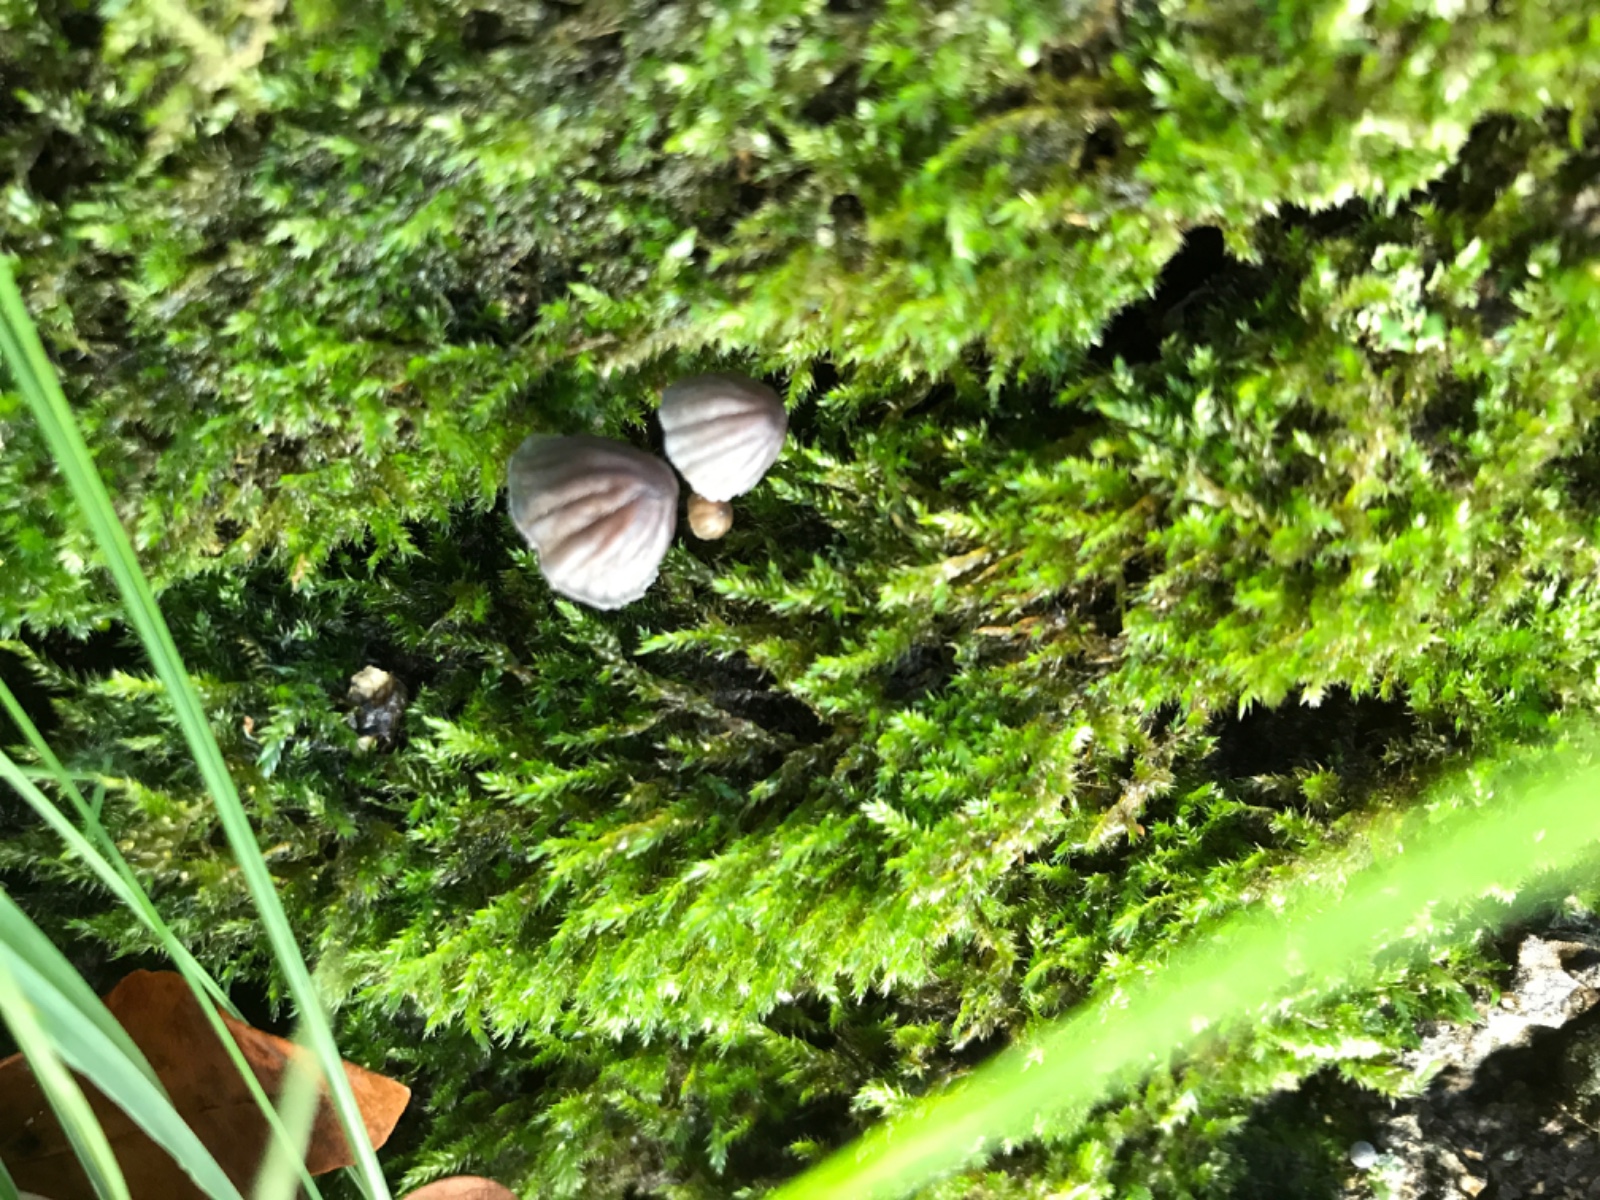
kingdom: Fungi
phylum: Basidiomycota
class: Agaricomycetes
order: Agaricales
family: Mycenaceae
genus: Mycena
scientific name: Mycena pseudocorticola
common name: gråblå bark-huesvamp
